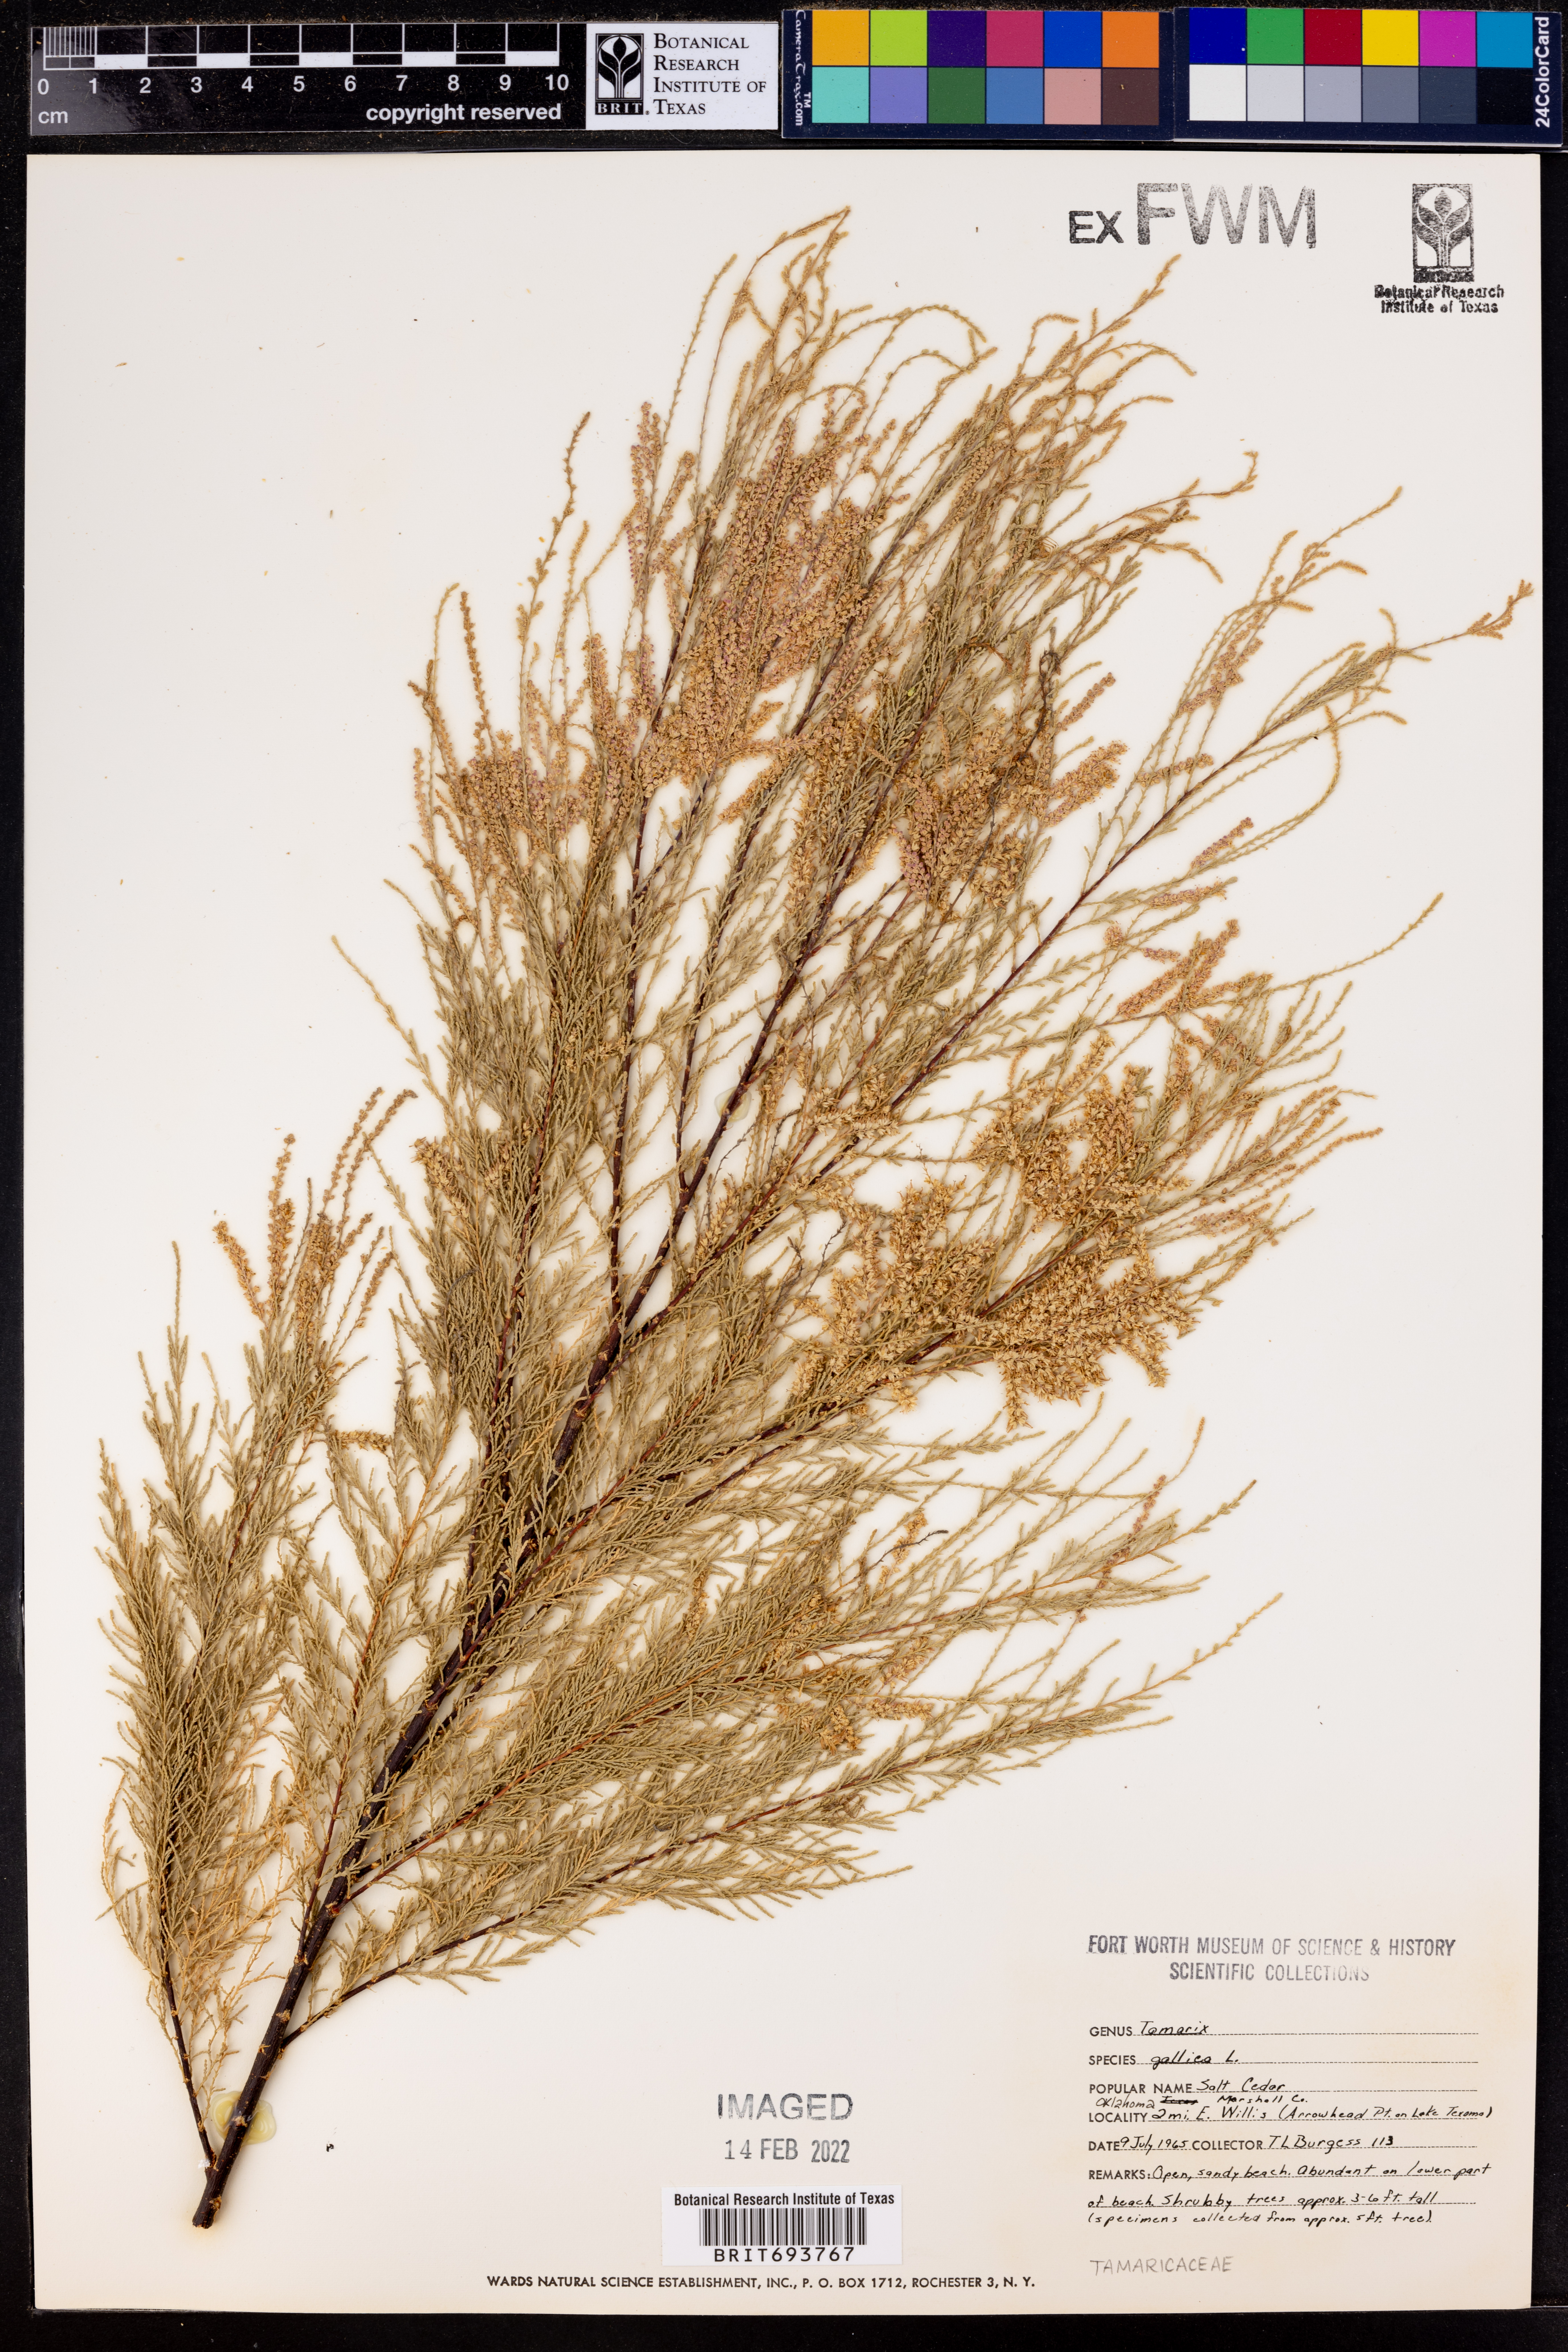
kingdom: Plantae
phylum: Tracheophyta
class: Magnoliopsida
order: Caryophyllales
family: Tamaricaceae
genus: Tamarix
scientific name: Tamarix gallica
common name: Tamarisk
